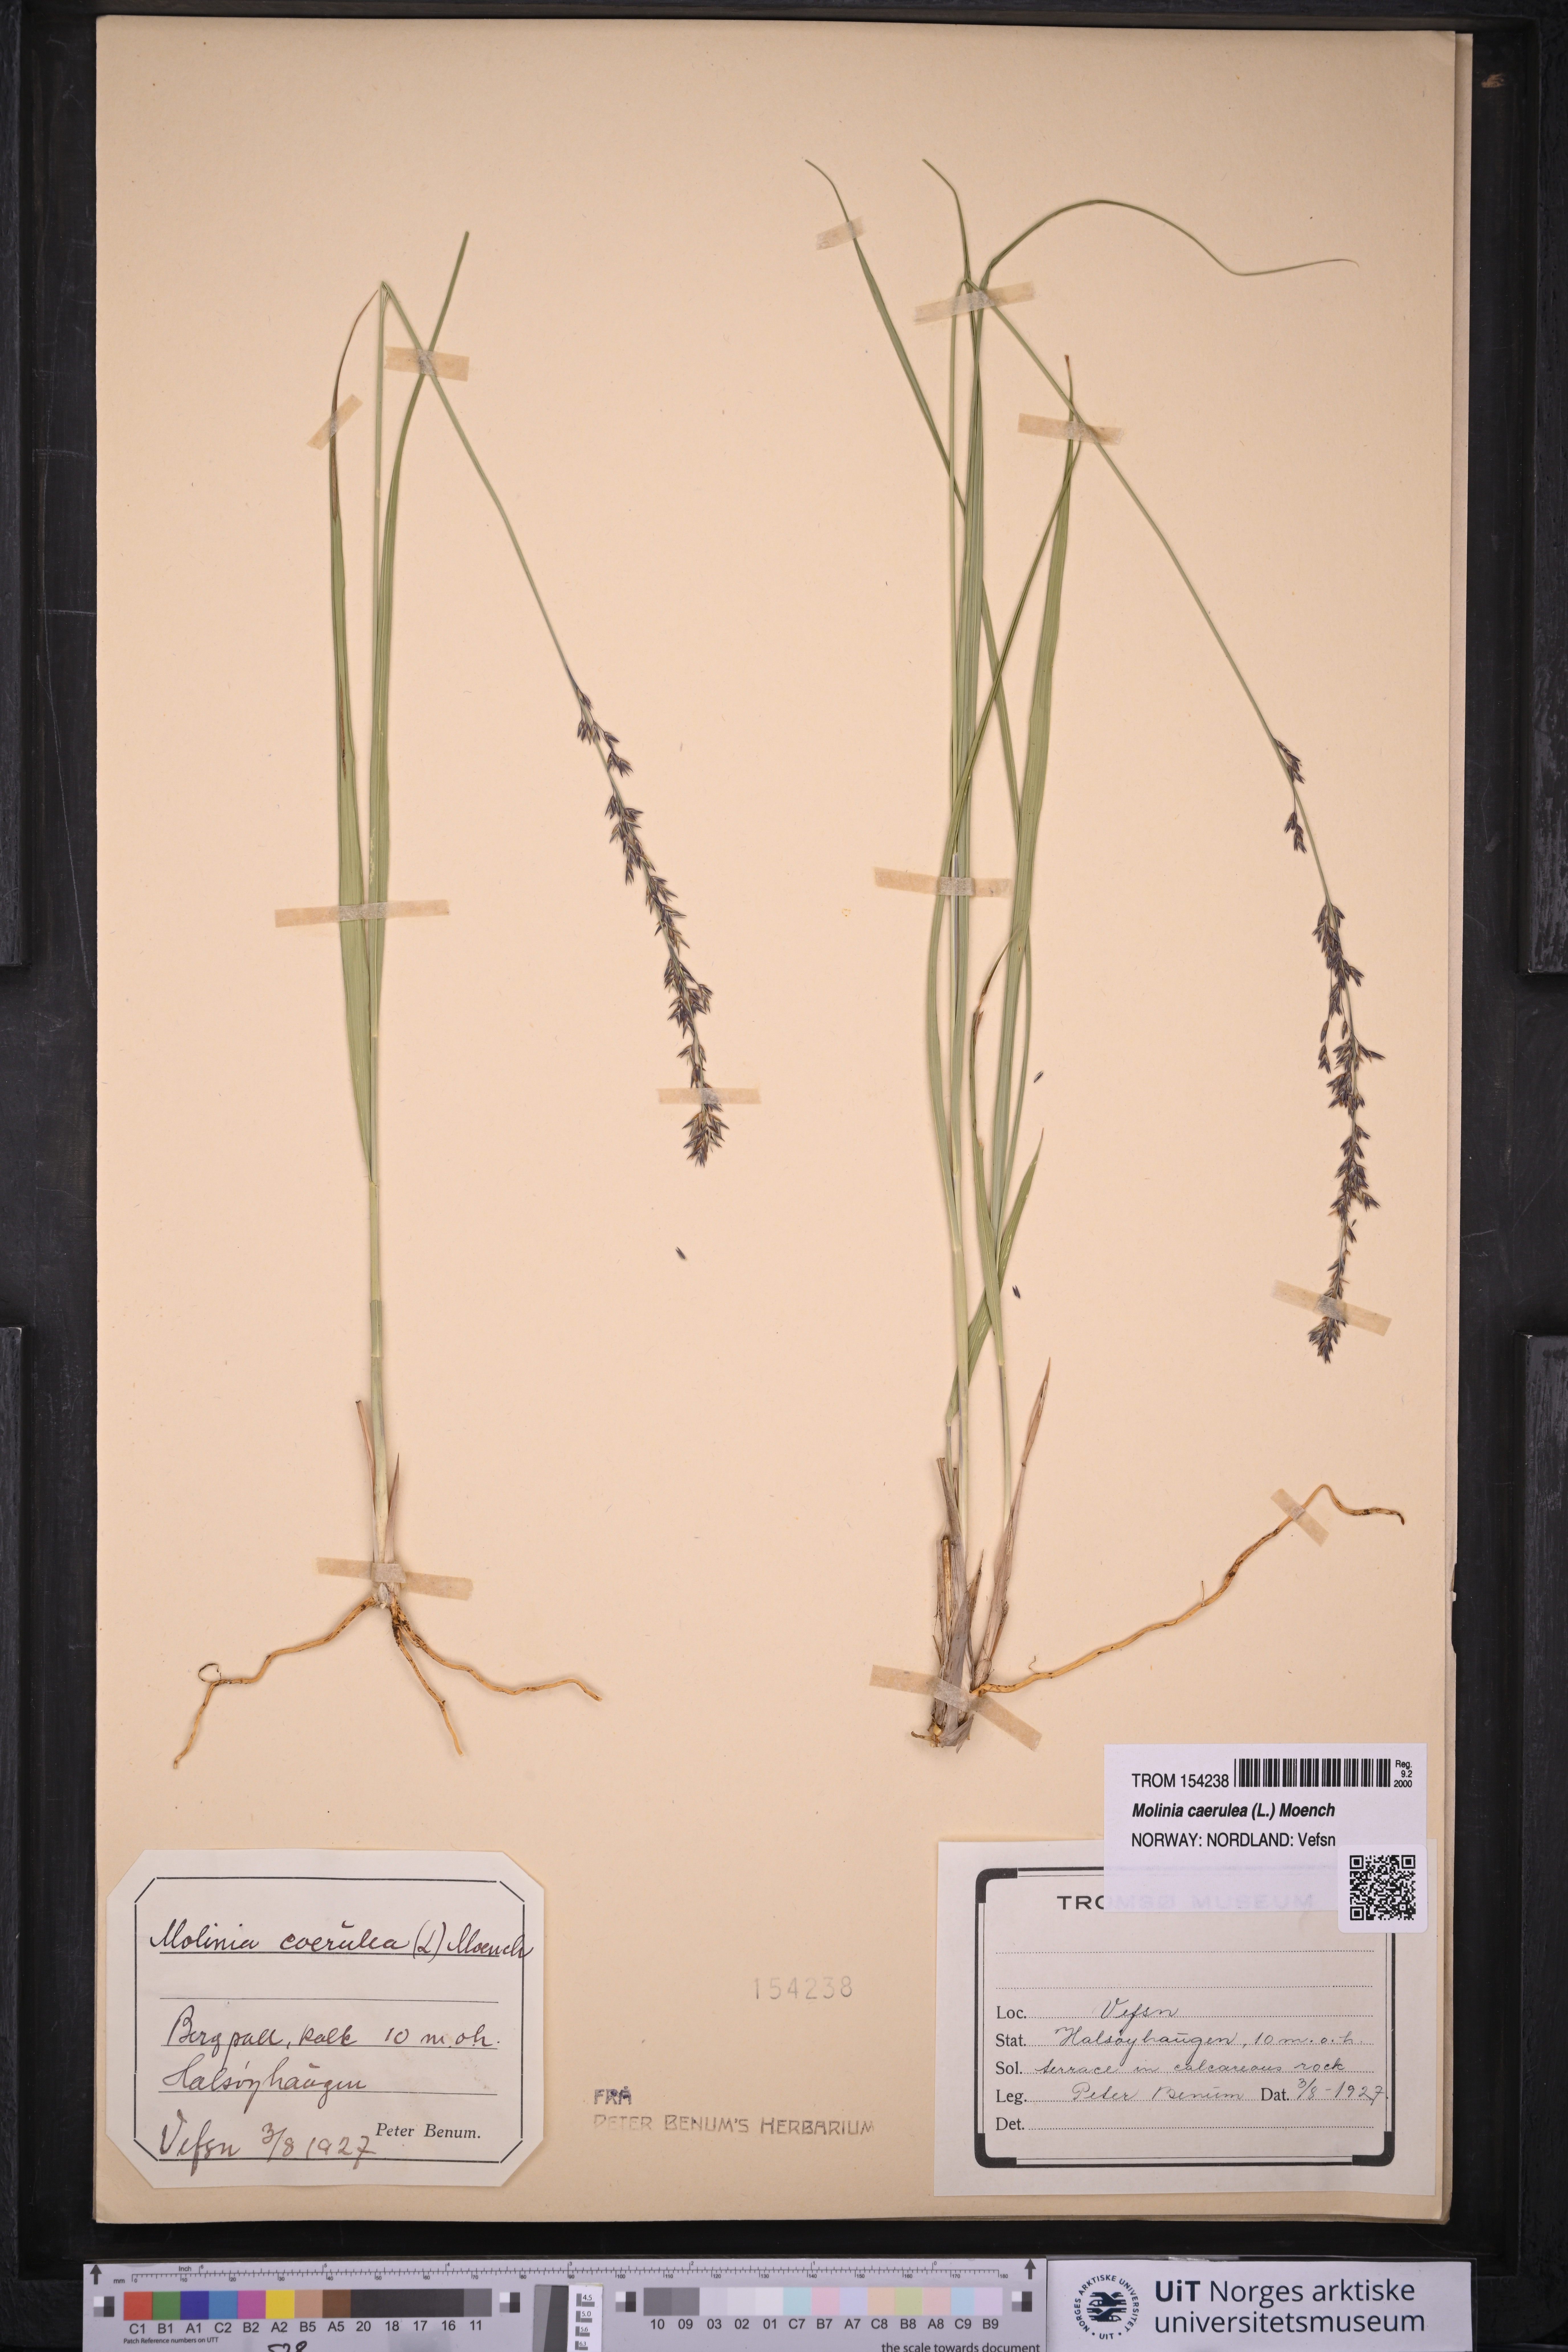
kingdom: Plantae
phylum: Tracheophyta
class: Liliopsida
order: Poales
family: Poaceae
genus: Molinia
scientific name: Molinia caerulea
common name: Purple moor-grass
